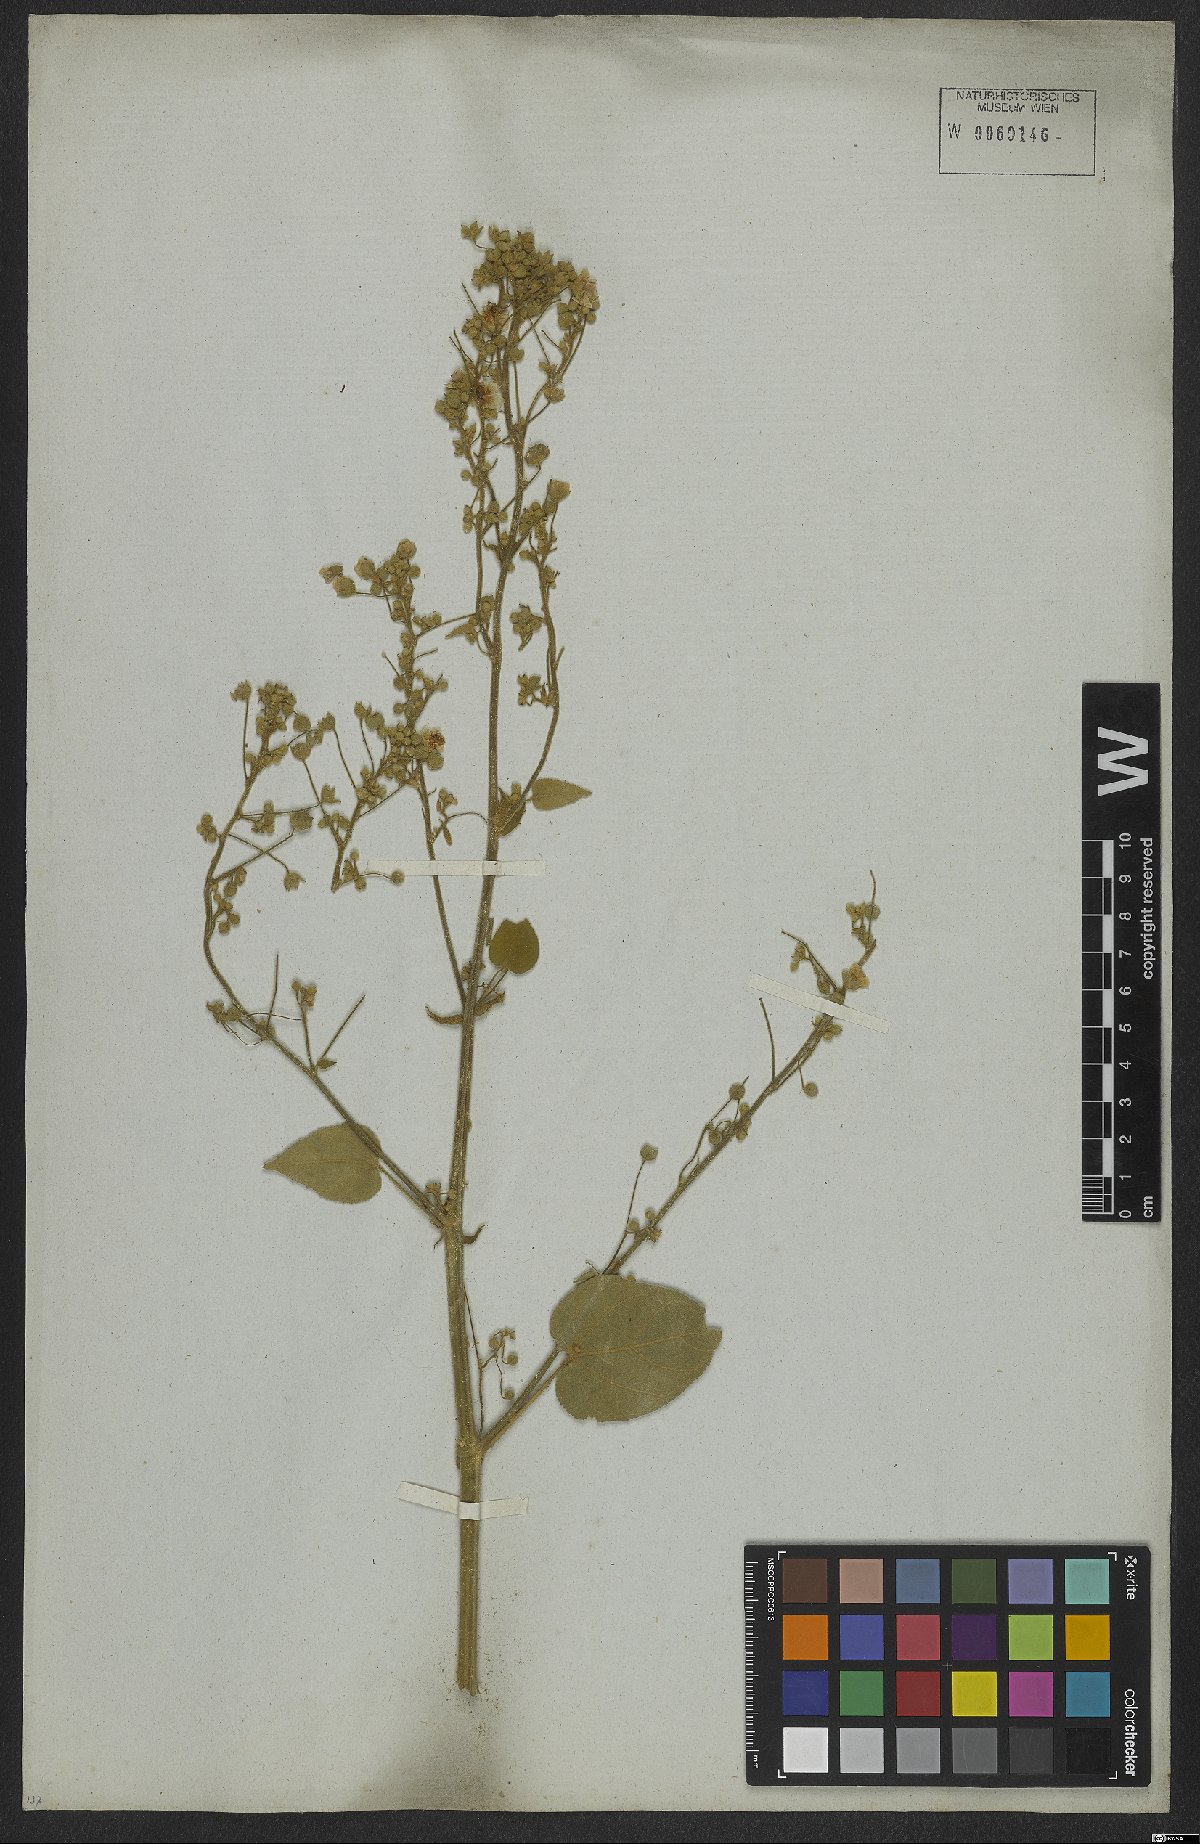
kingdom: Plantae
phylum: Tracheophyta
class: Magnoliopsida
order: Malvales
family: Malvaceae
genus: Abutilon
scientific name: Abutilon
